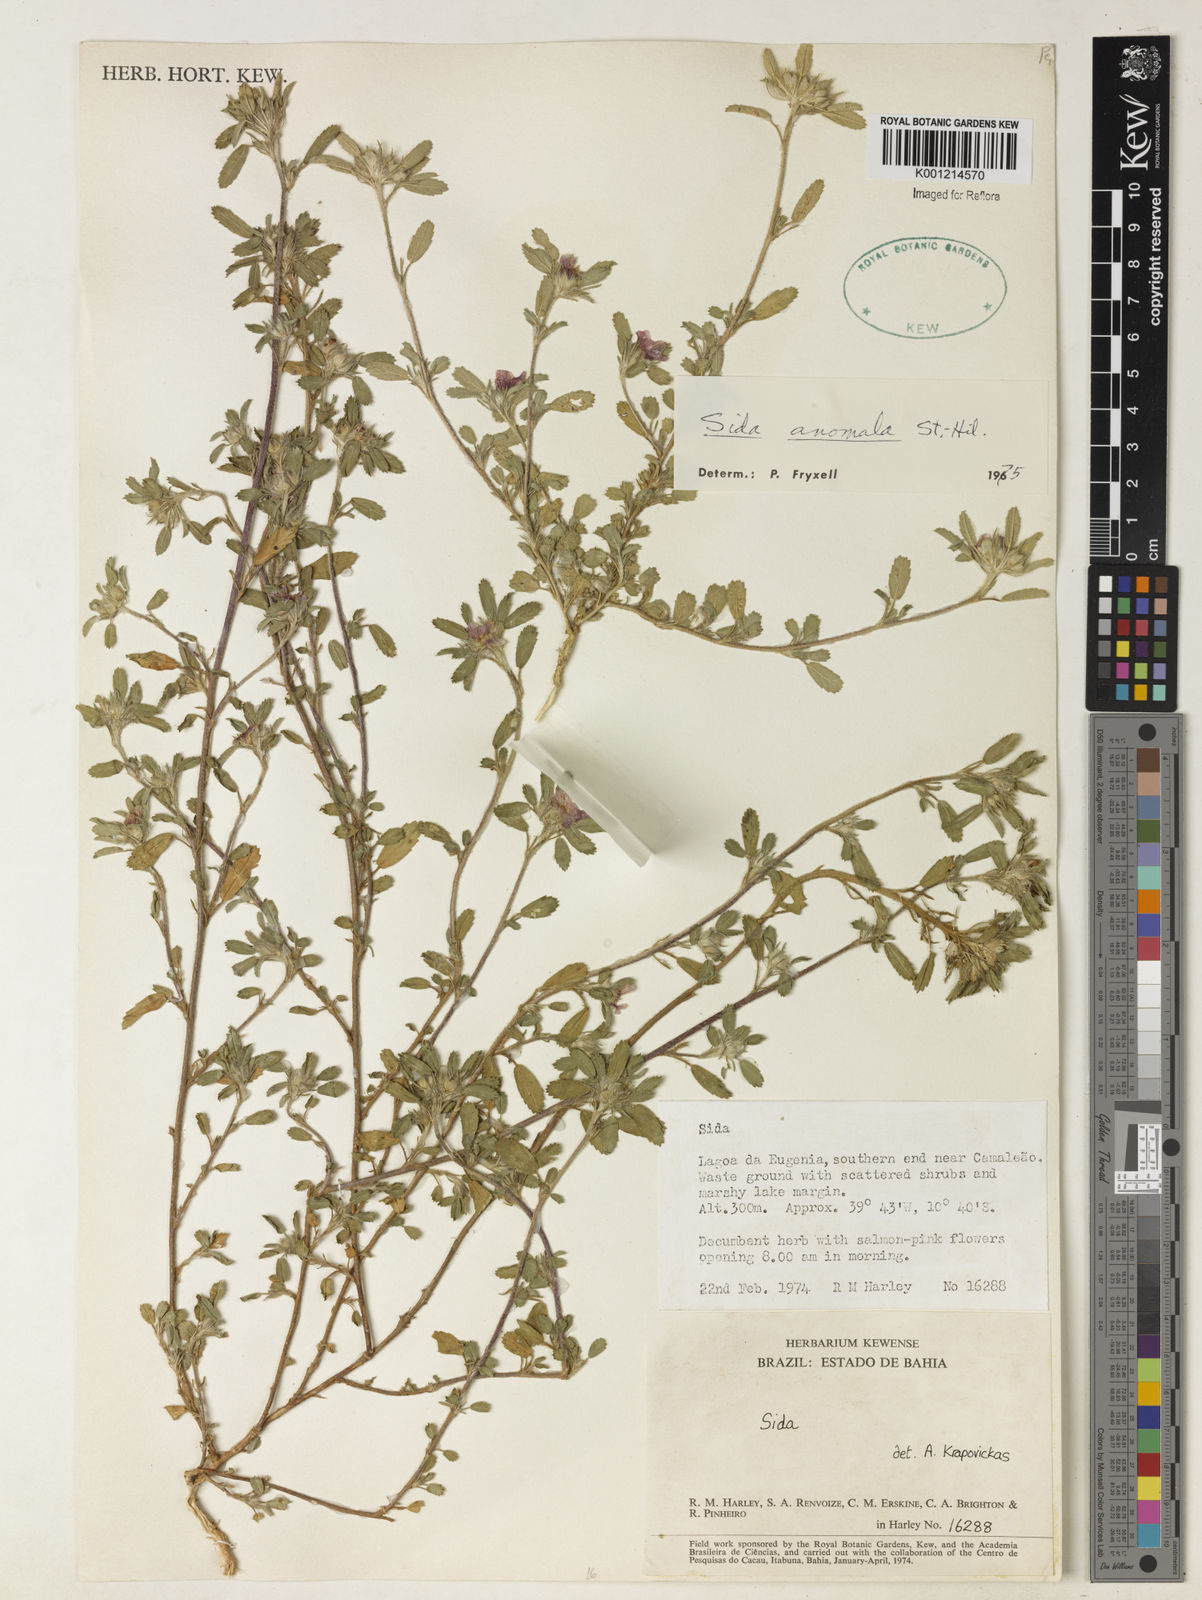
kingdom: Plantae
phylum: Tracheophyta
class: Magnoliopsida
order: Malvales
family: Malvaceae
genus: Sida
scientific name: Sida anomala
